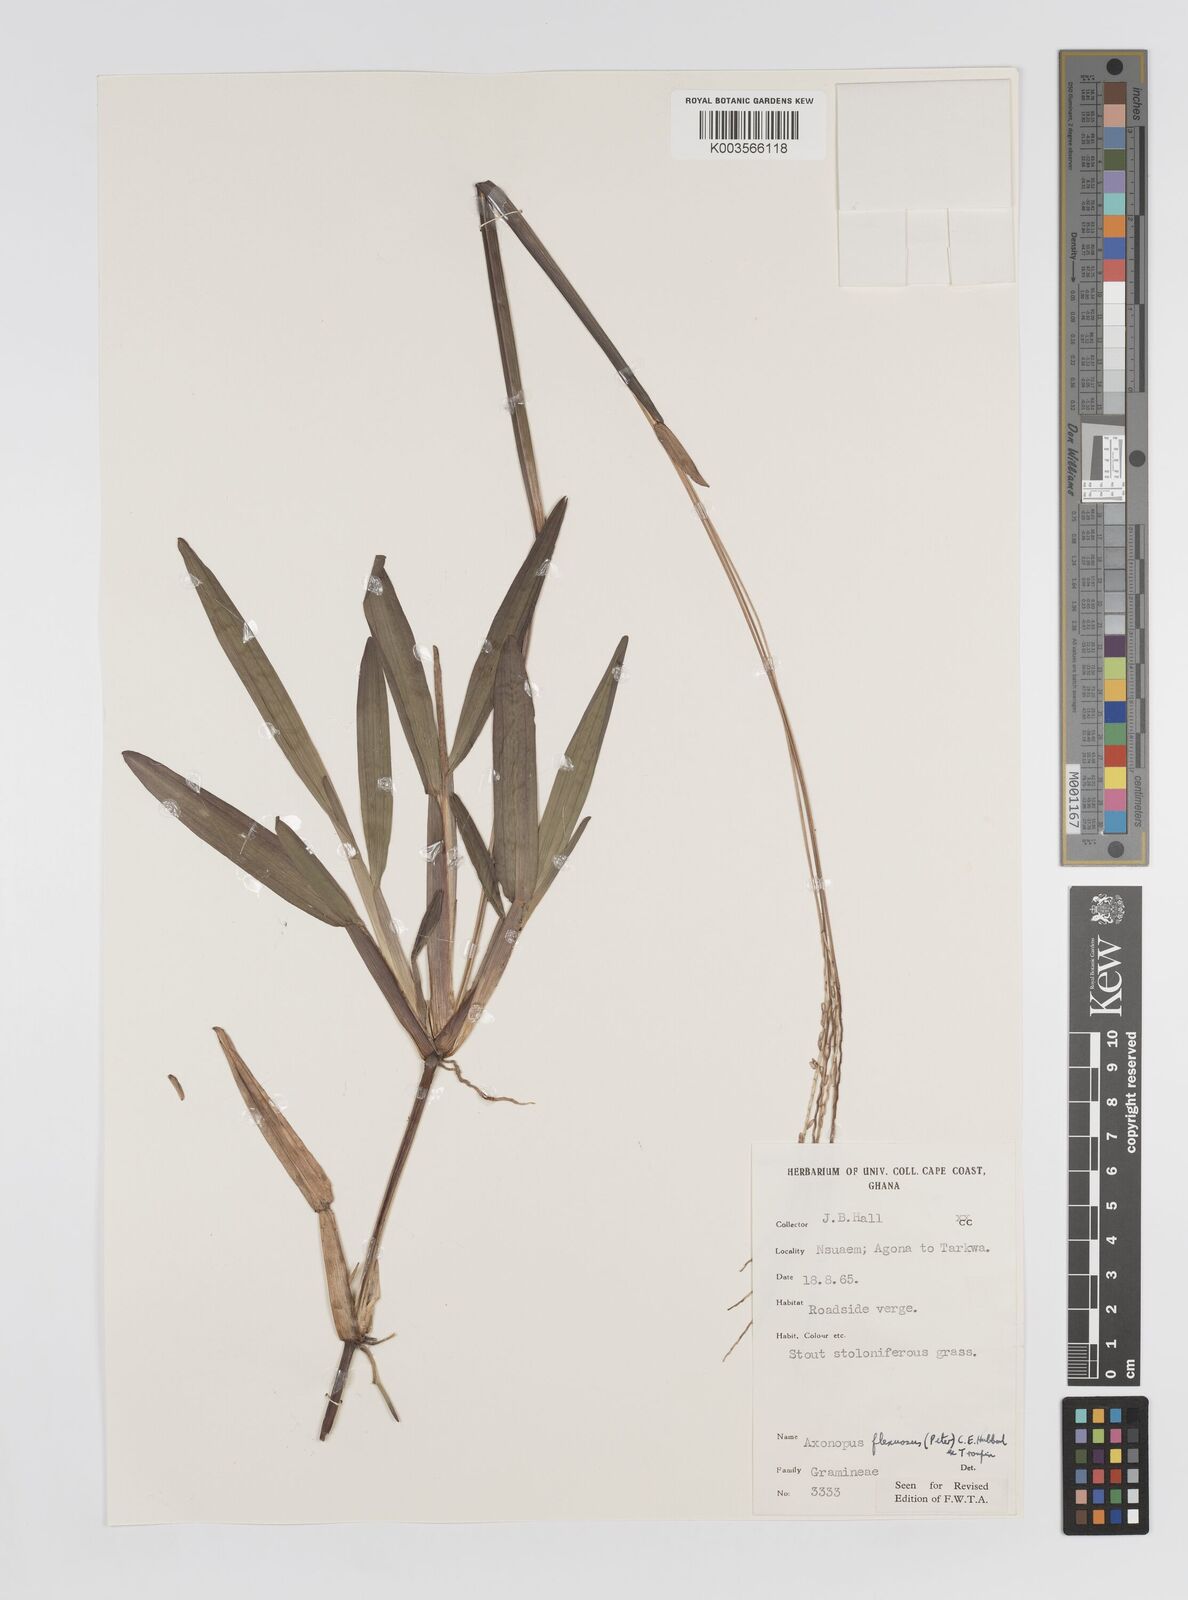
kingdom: Plantae
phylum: Tracheophyta
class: Liliopsida
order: Poales
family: Poaceae
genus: Axonopus
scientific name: Axonopus flexuosus
